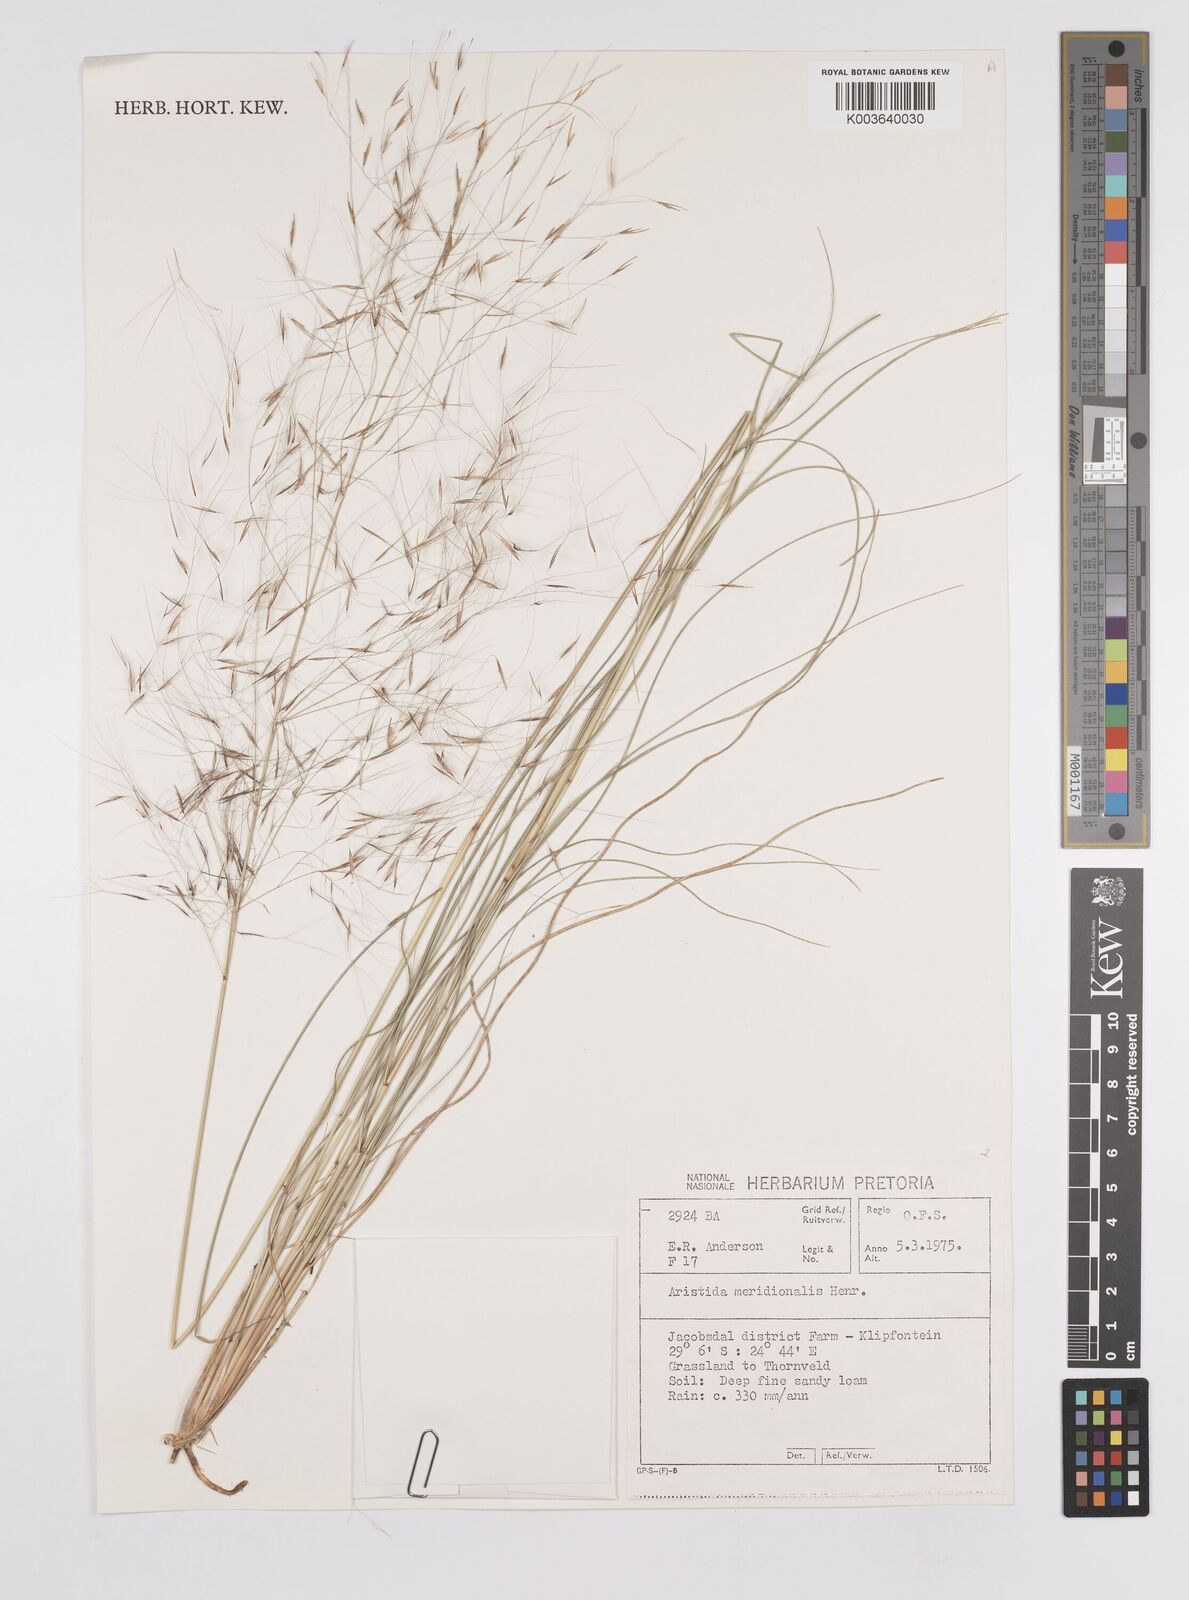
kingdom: Plantae
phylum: Tracheophyta
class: Liliopsida
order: Poales
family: Poaceae
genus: Aristida
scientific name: Aristida meridionalis
